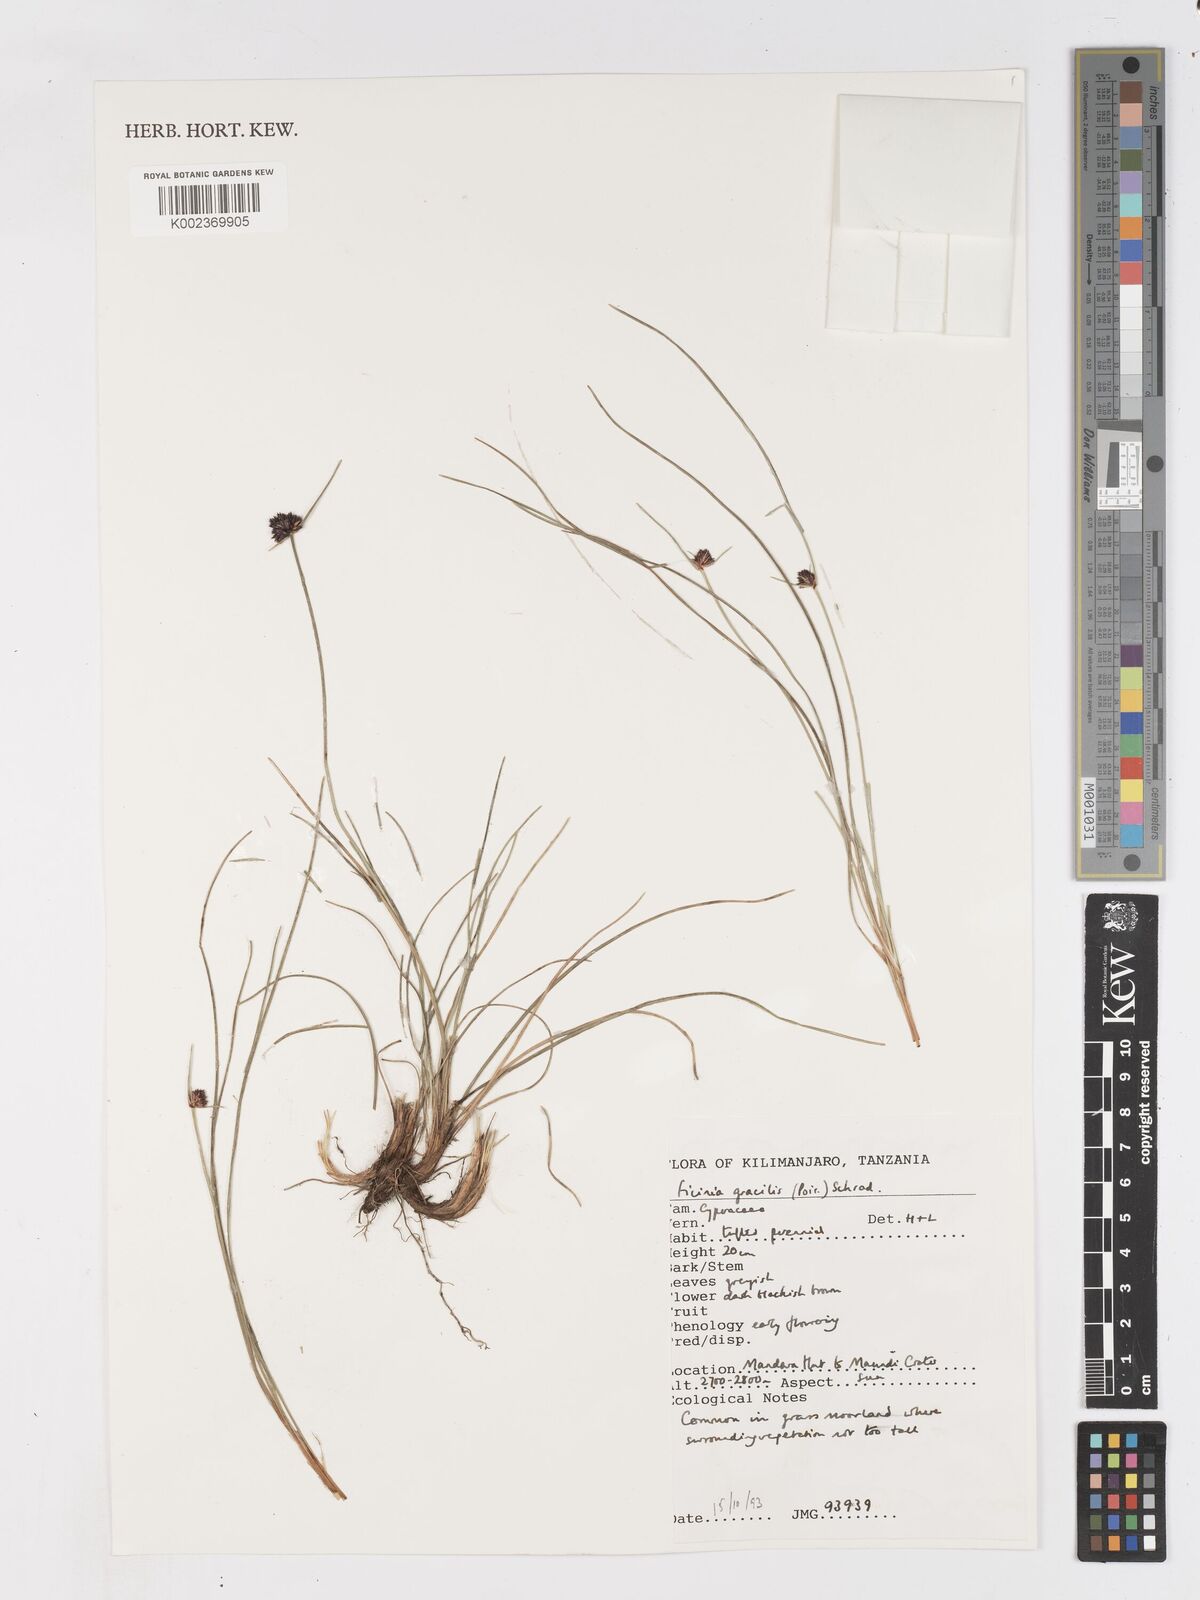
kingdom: Plantae
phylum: Tracheophyta
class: Liliopsida
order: Poales
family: Cyperaceae
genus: Ficinia
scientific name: Ficinia gracilis
